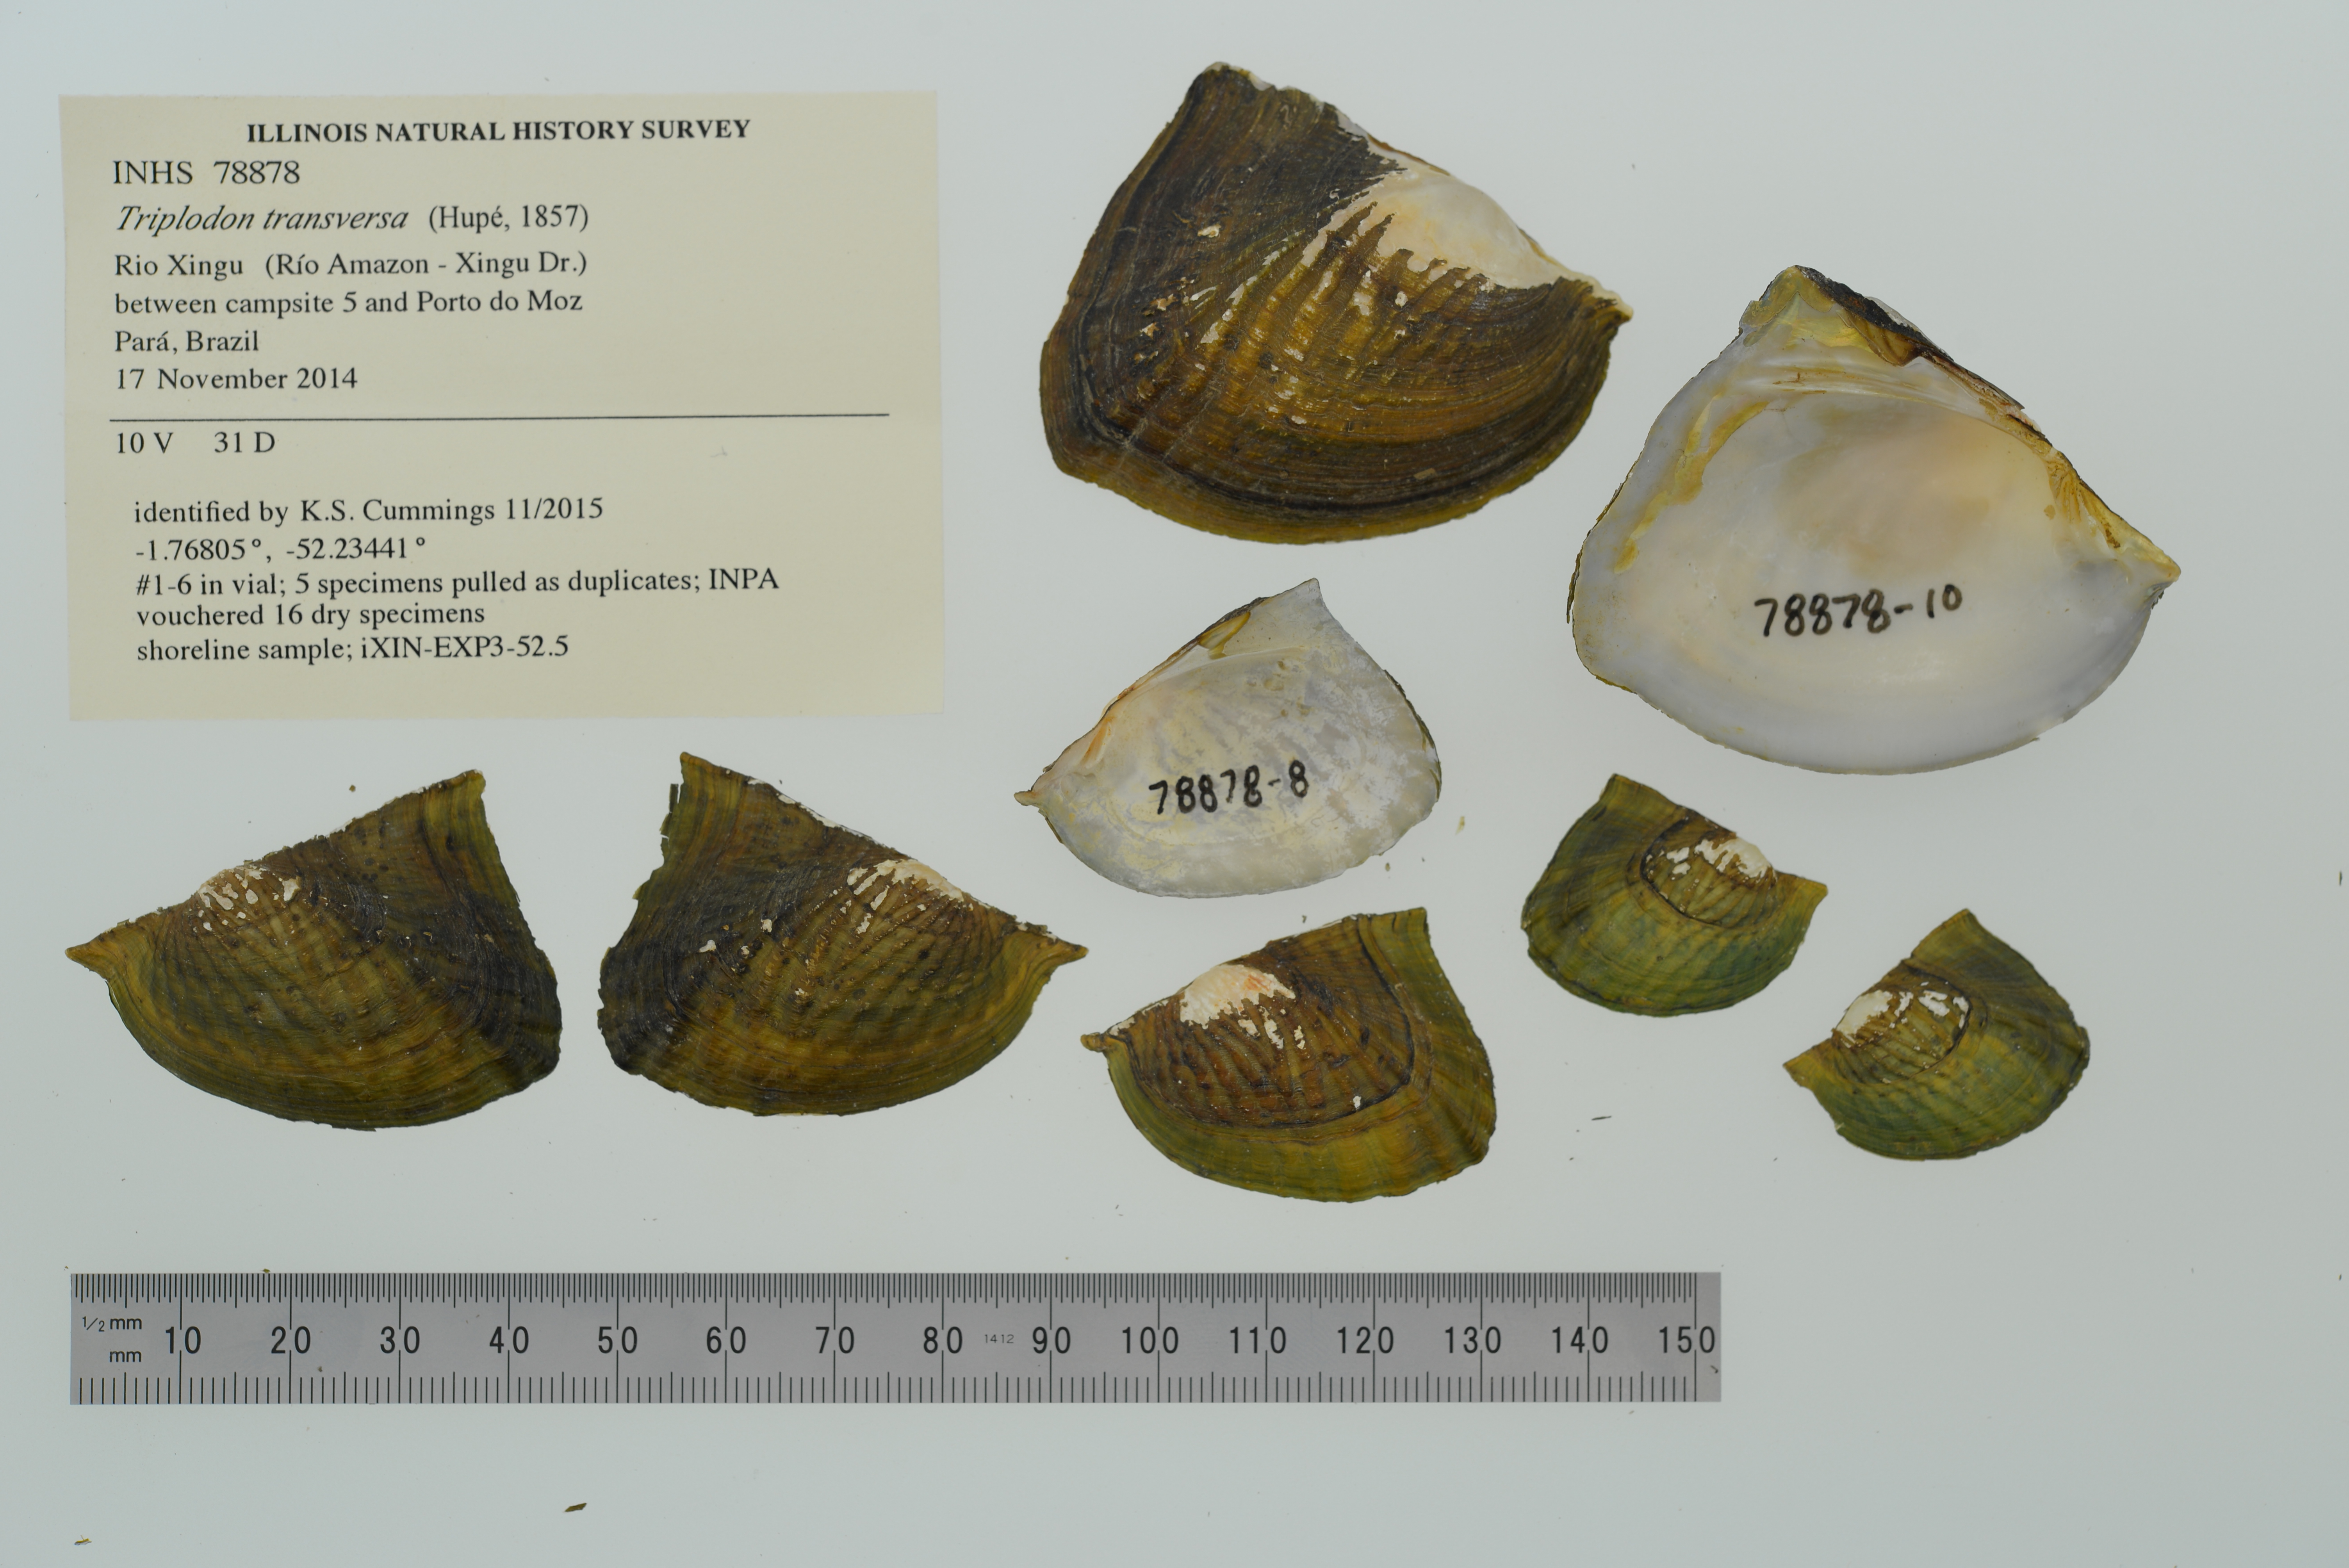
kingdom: Animalia
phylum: Mollusca
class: Bivalvia
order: Unionida
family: Hyriidae
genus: Triplodon
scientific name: Triplodon
